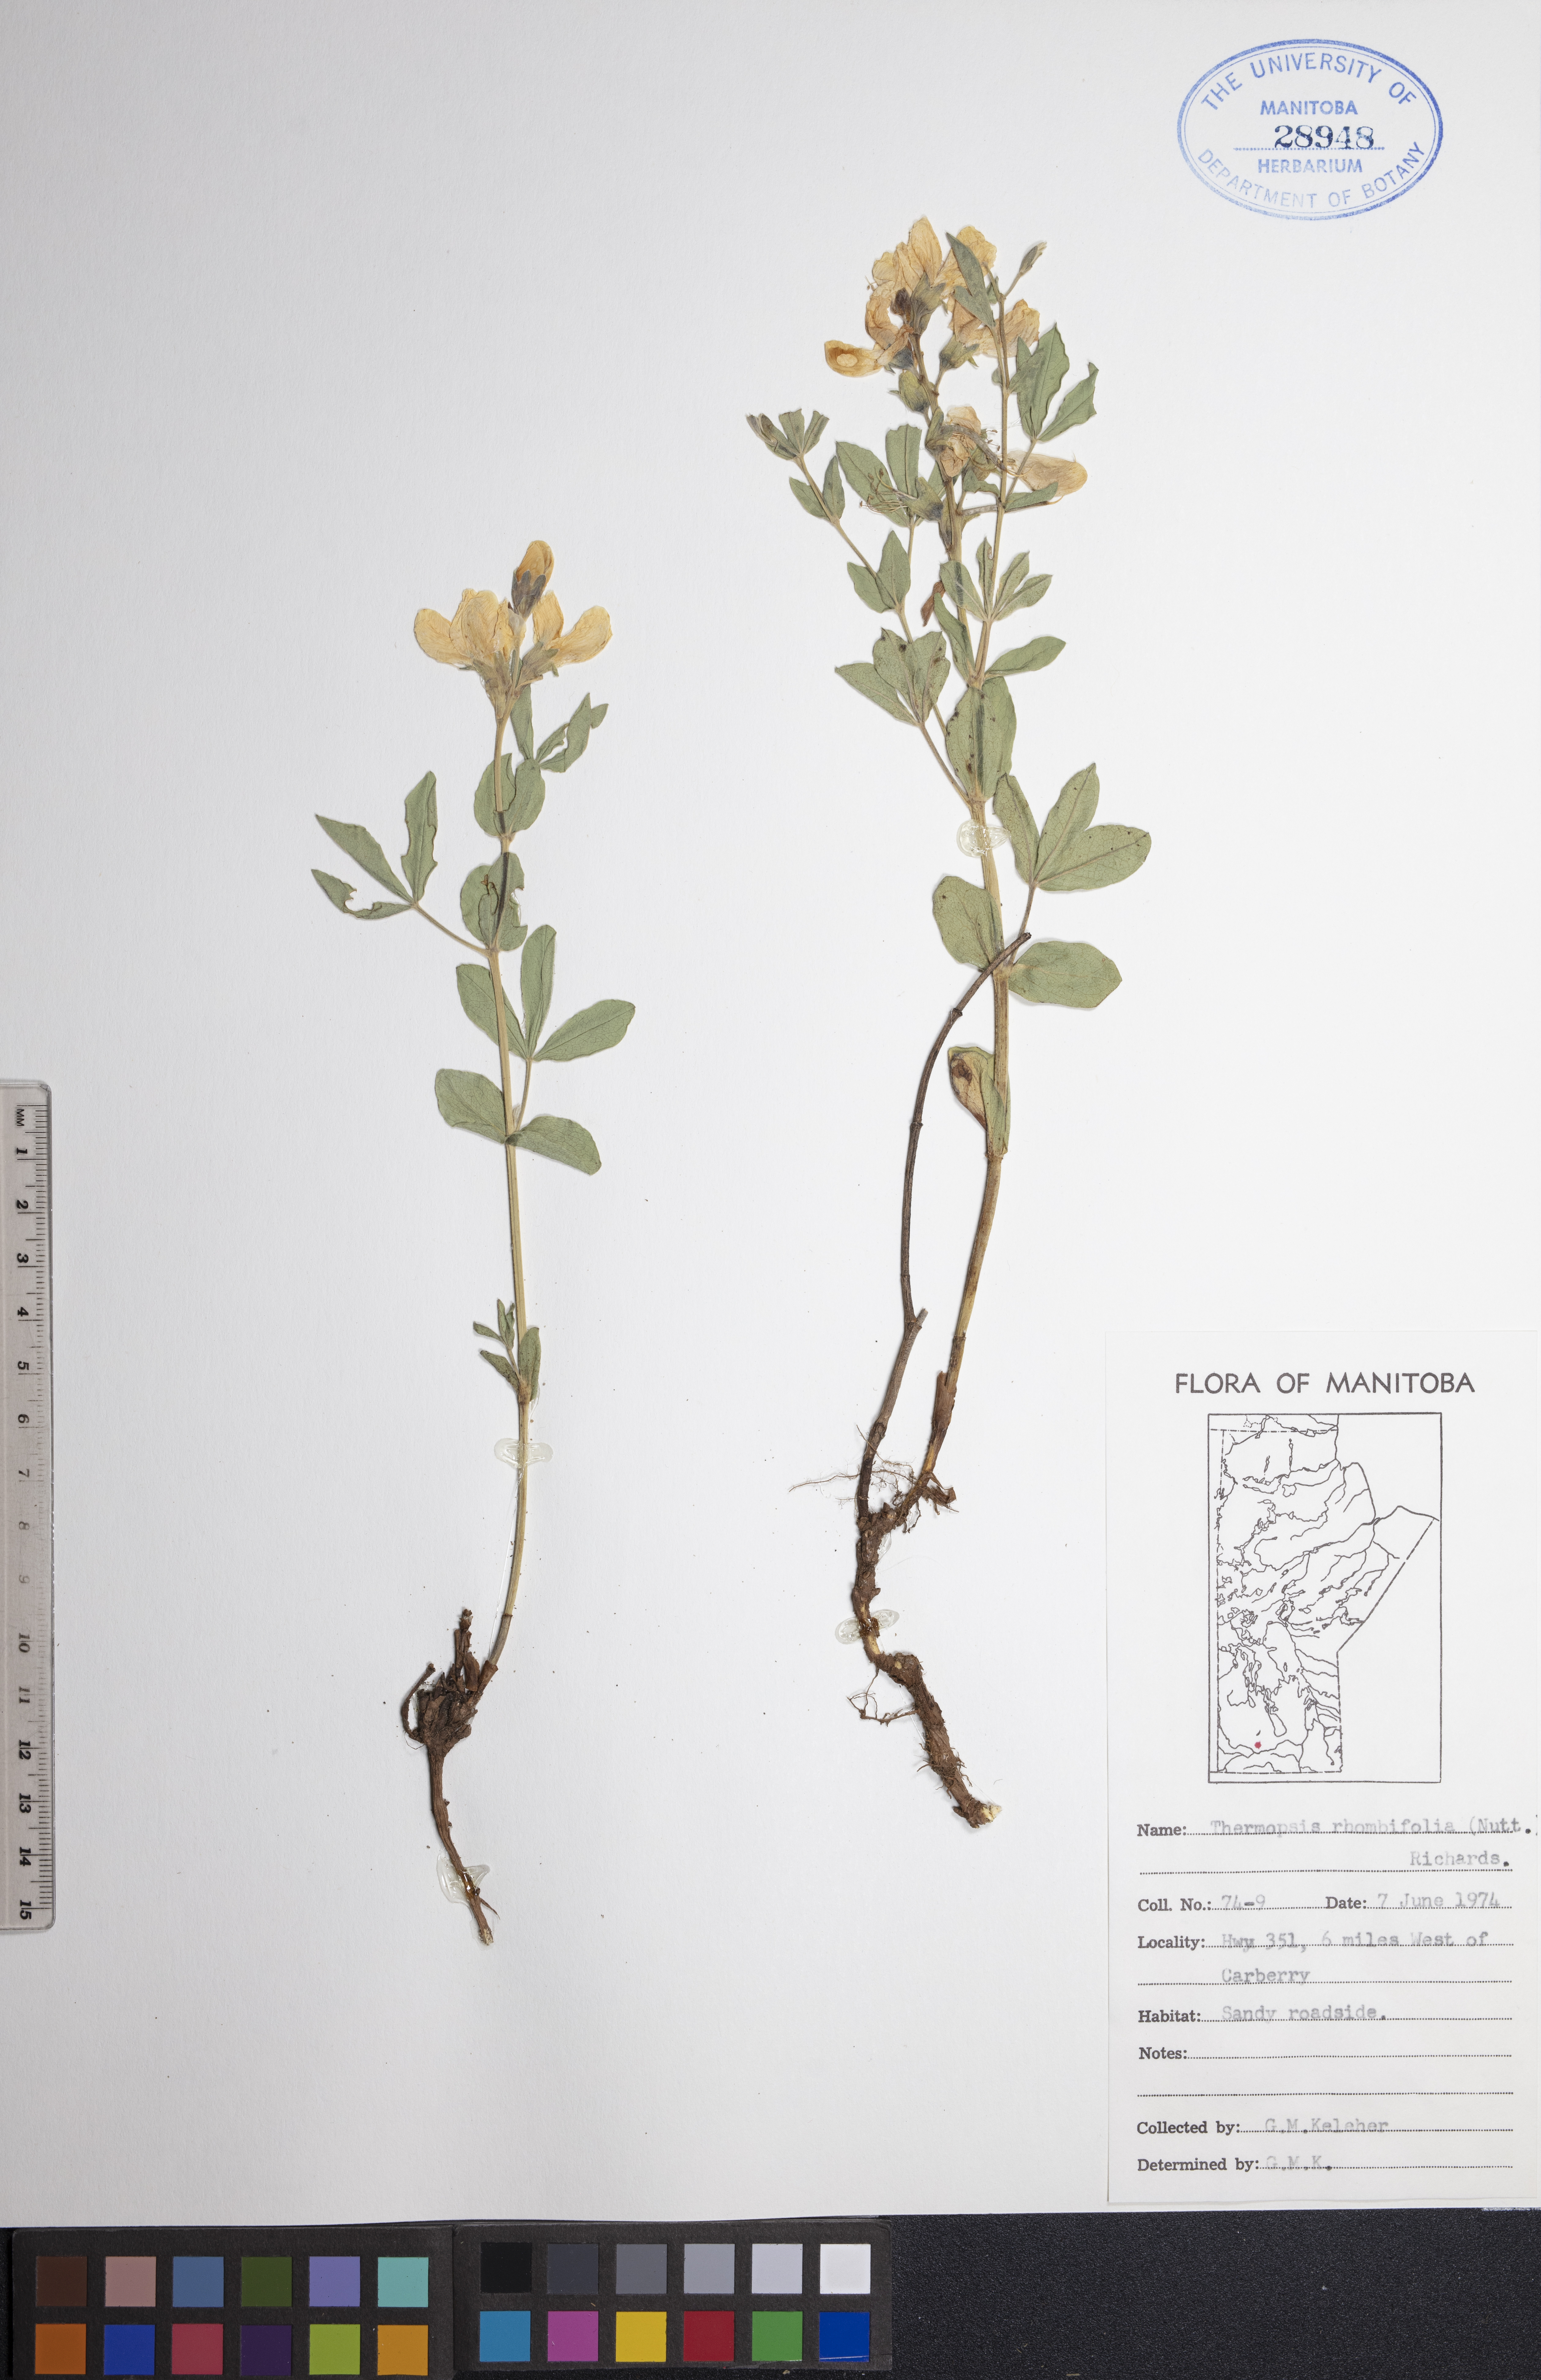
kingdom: Plantae
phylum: Tracheophyta
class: Magnoliopsida
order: Fabales
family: Fabaceae
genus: Thermopsis
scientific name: Thermopsis rhombifolia
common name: Circle-pod-pea
